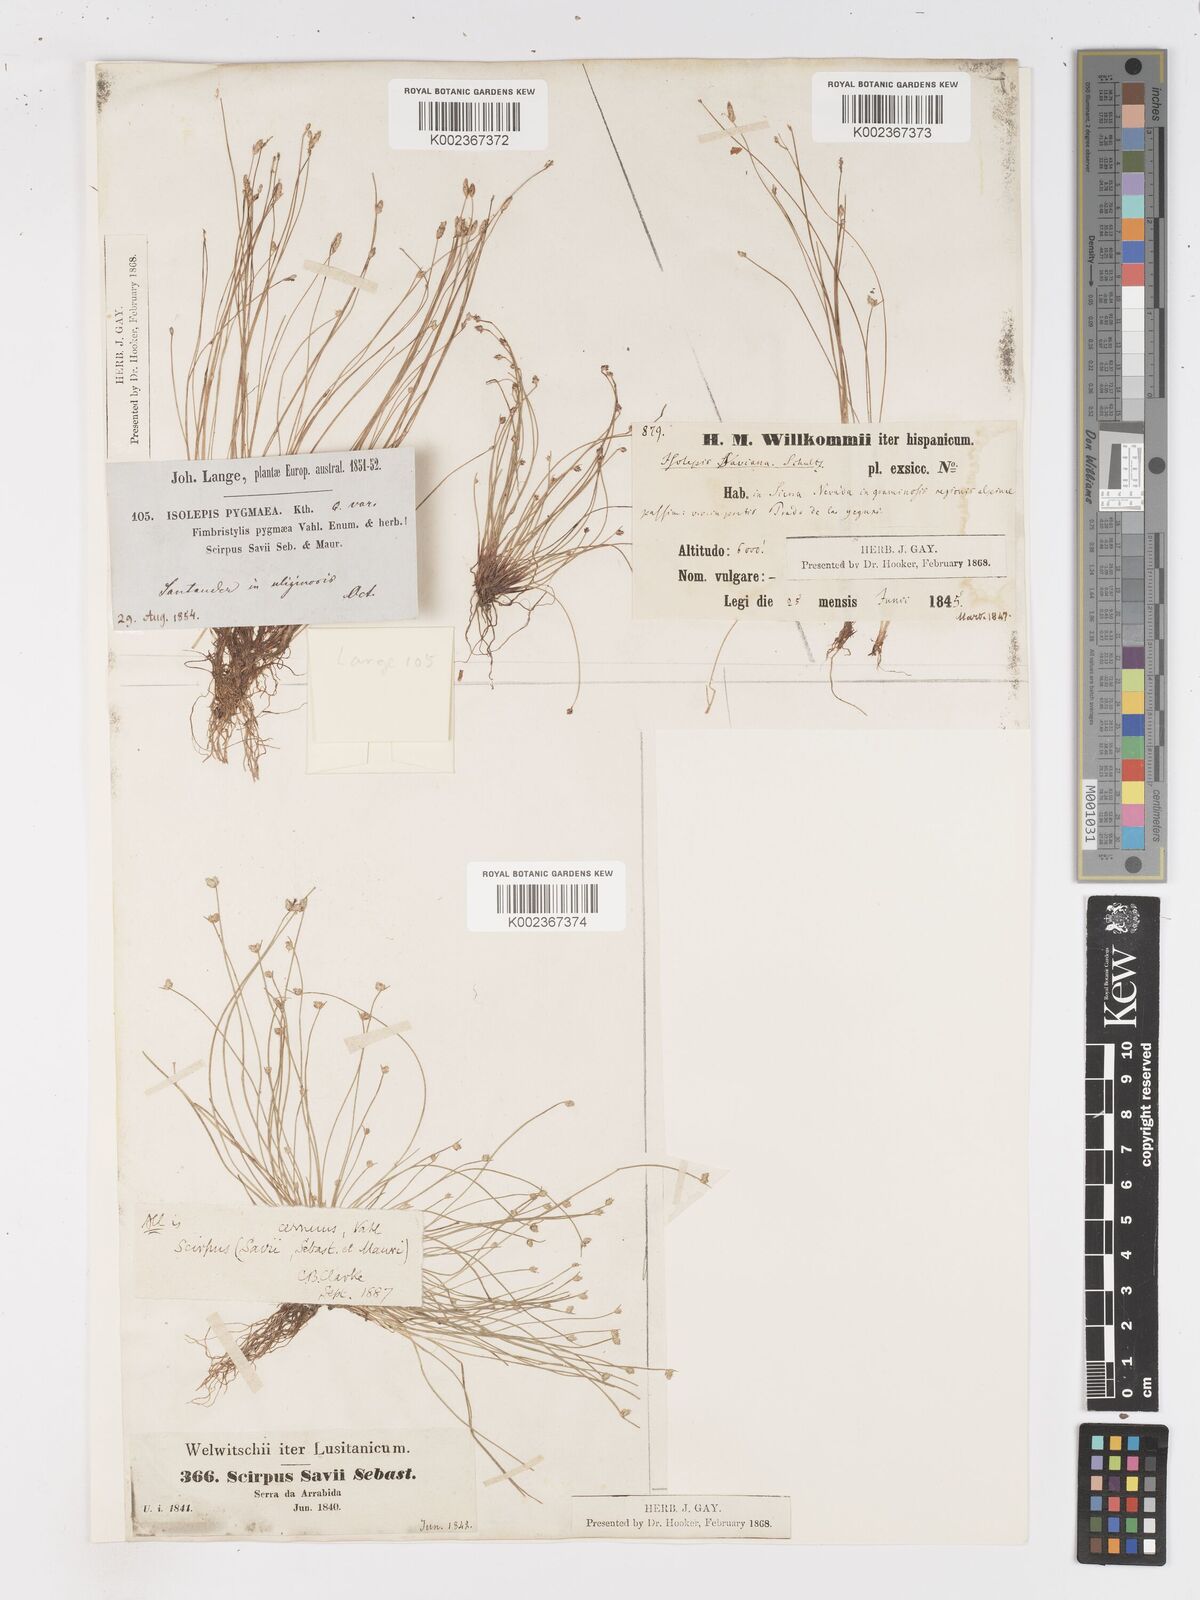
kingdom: Plantae
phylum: Tracheophyta
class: Liliopsida
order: Poales
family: Cyperaceae
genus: Isolepis
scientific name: Isolepis cernua
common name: Slender club-rush
